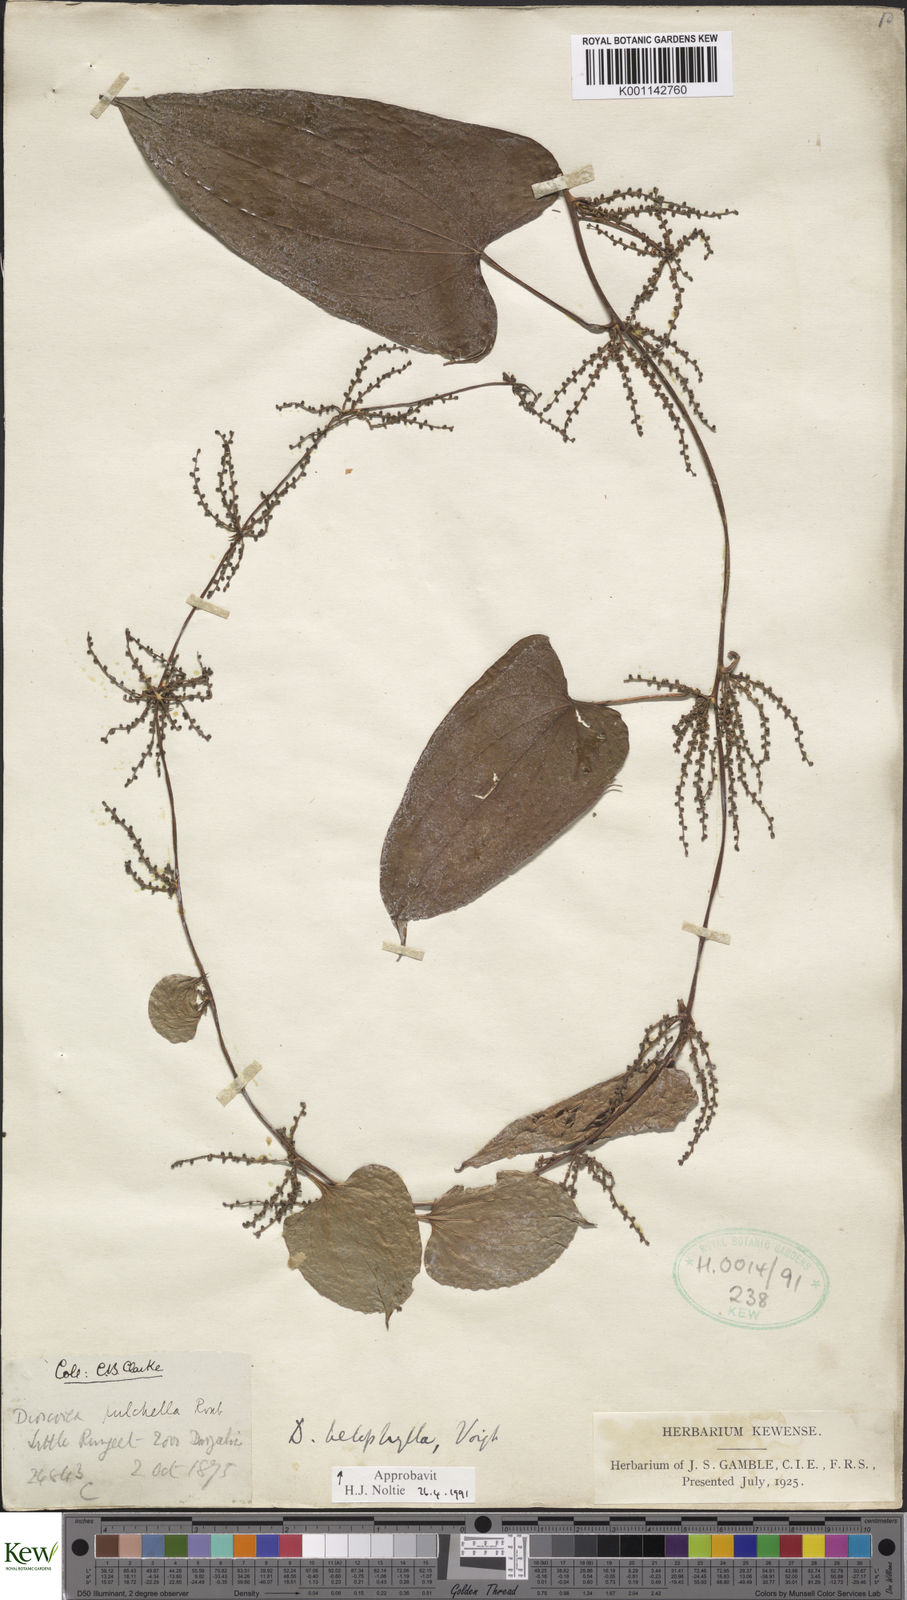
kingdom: Plantae
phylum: Tracheophyta
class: Liliopsida
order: Dioscoreales
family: Dioscoreaceae
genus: Dioscorea
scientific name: Dioscorea belophylla
